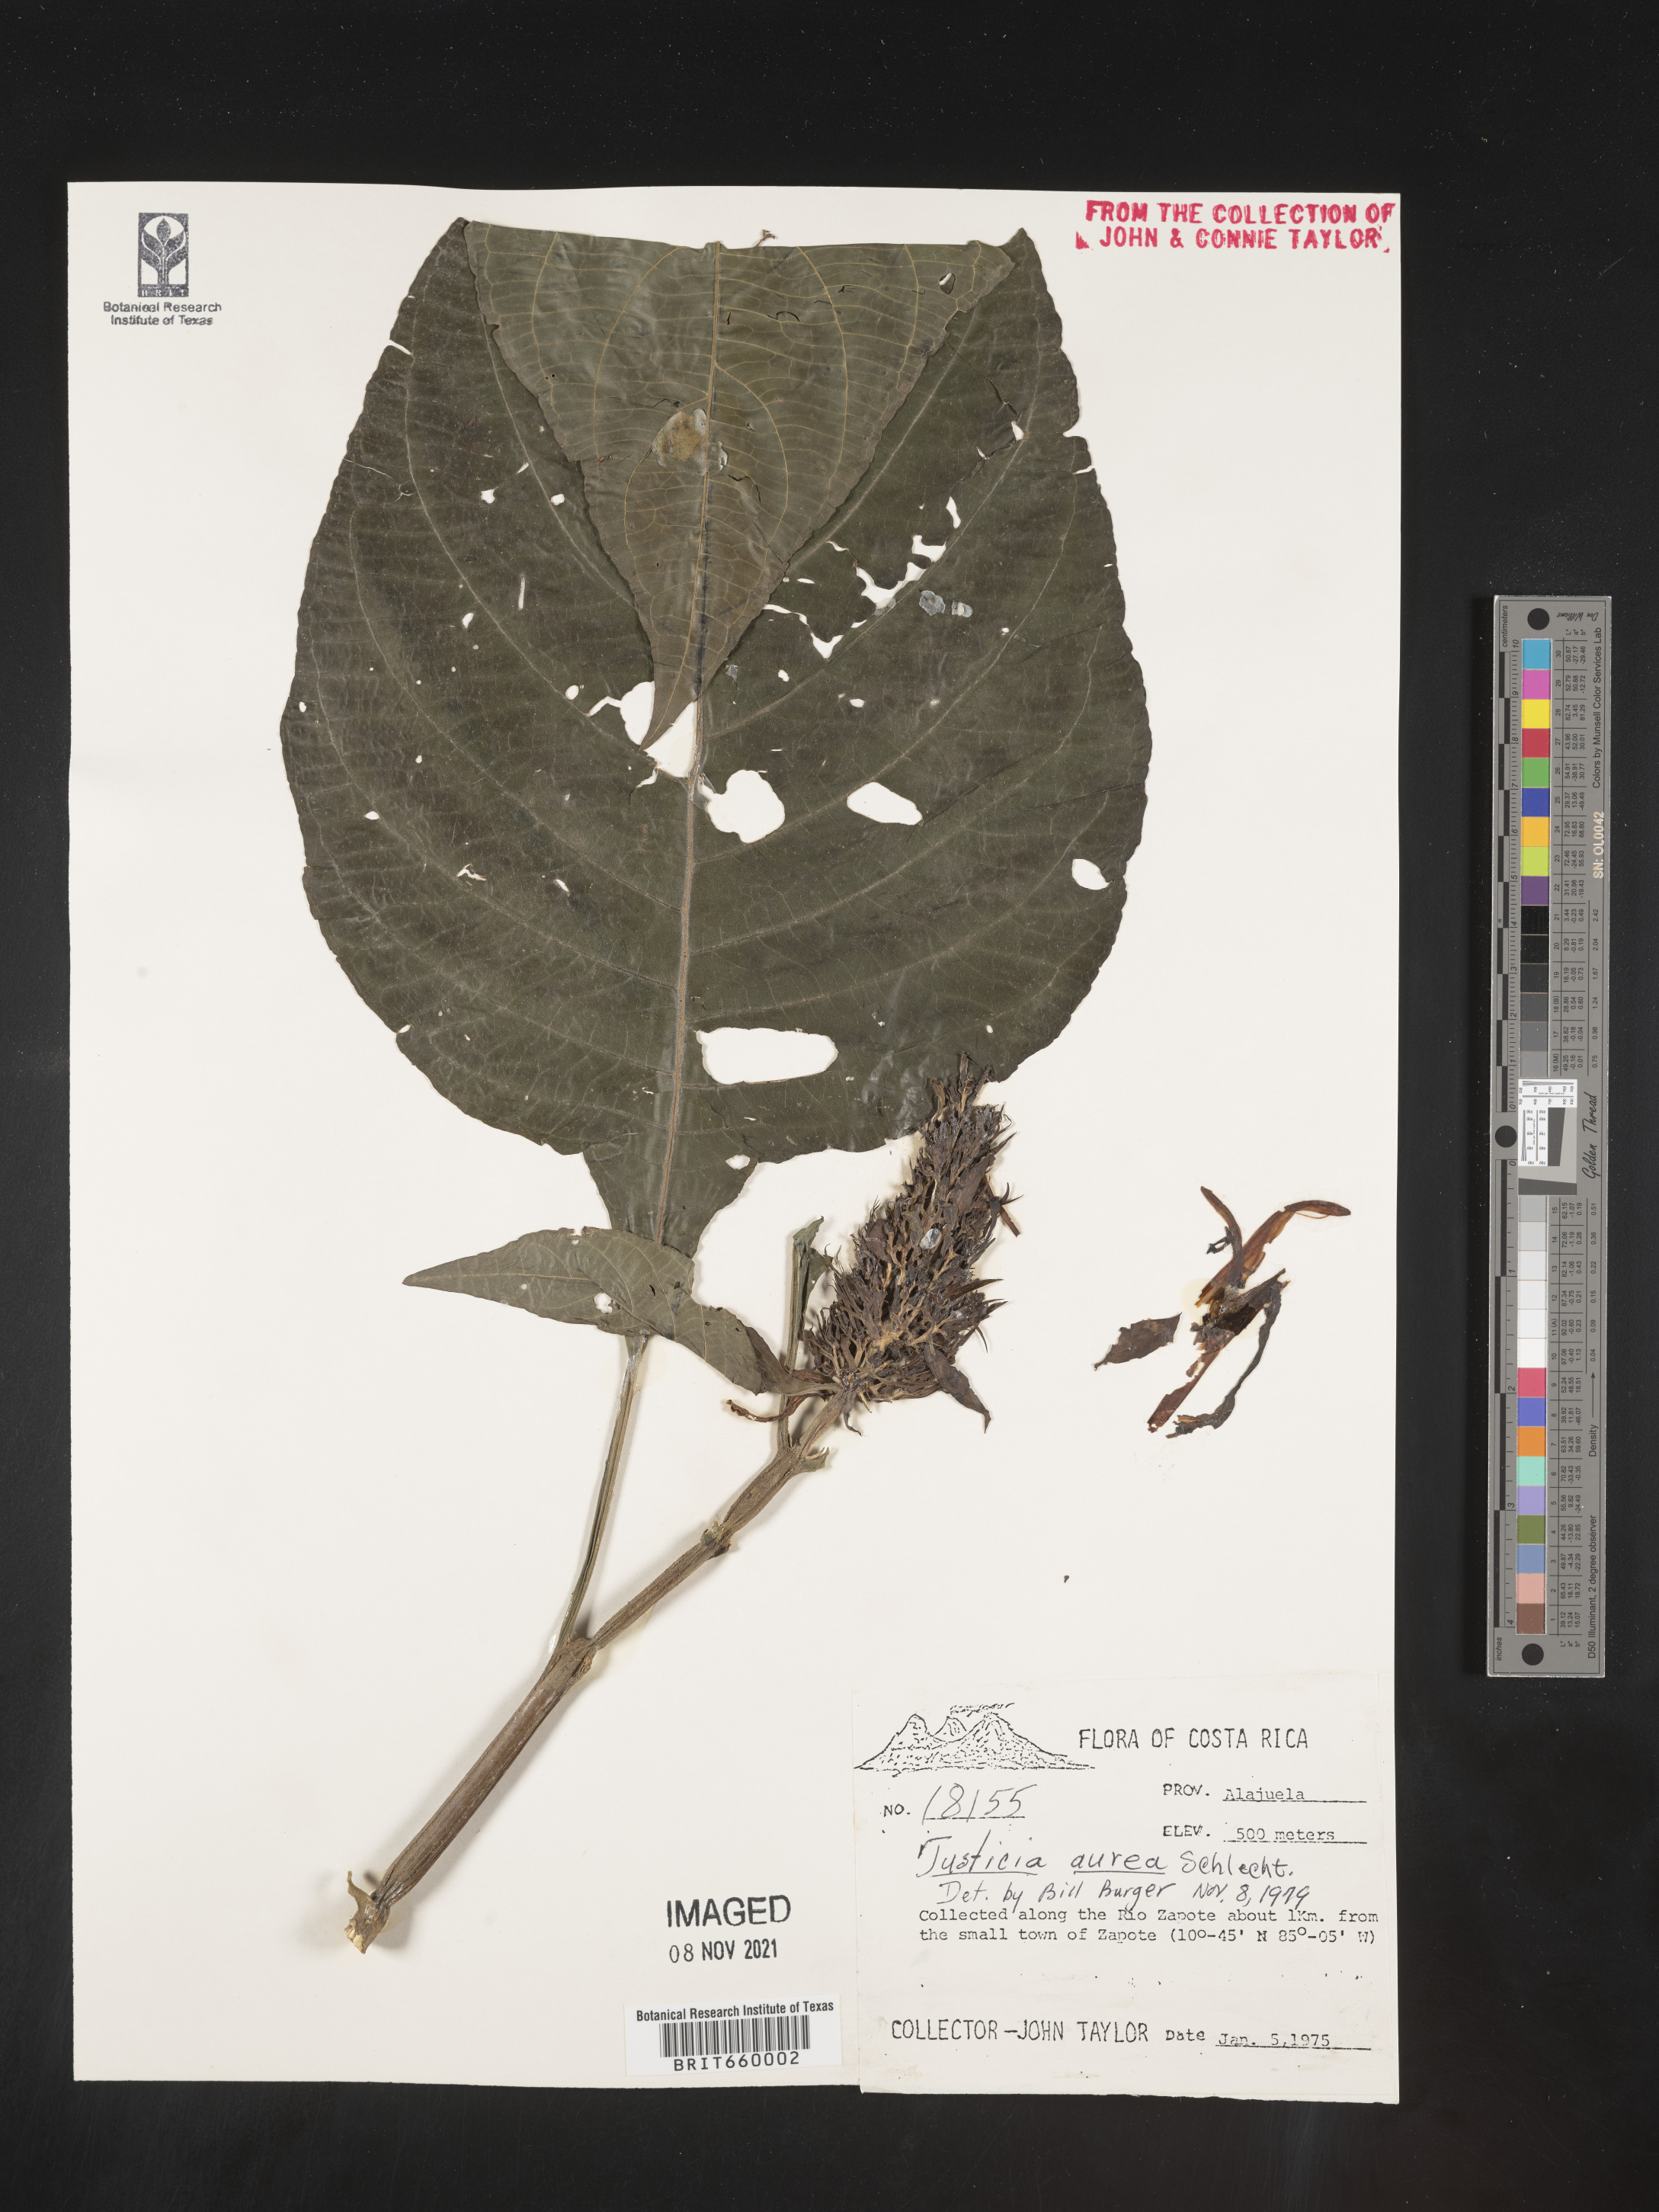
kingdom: Plantae
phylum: Tracheophyta
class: Magnoliopsida
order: Lamiales
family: Acanthaceae
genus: Justicia
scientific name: Justicia
